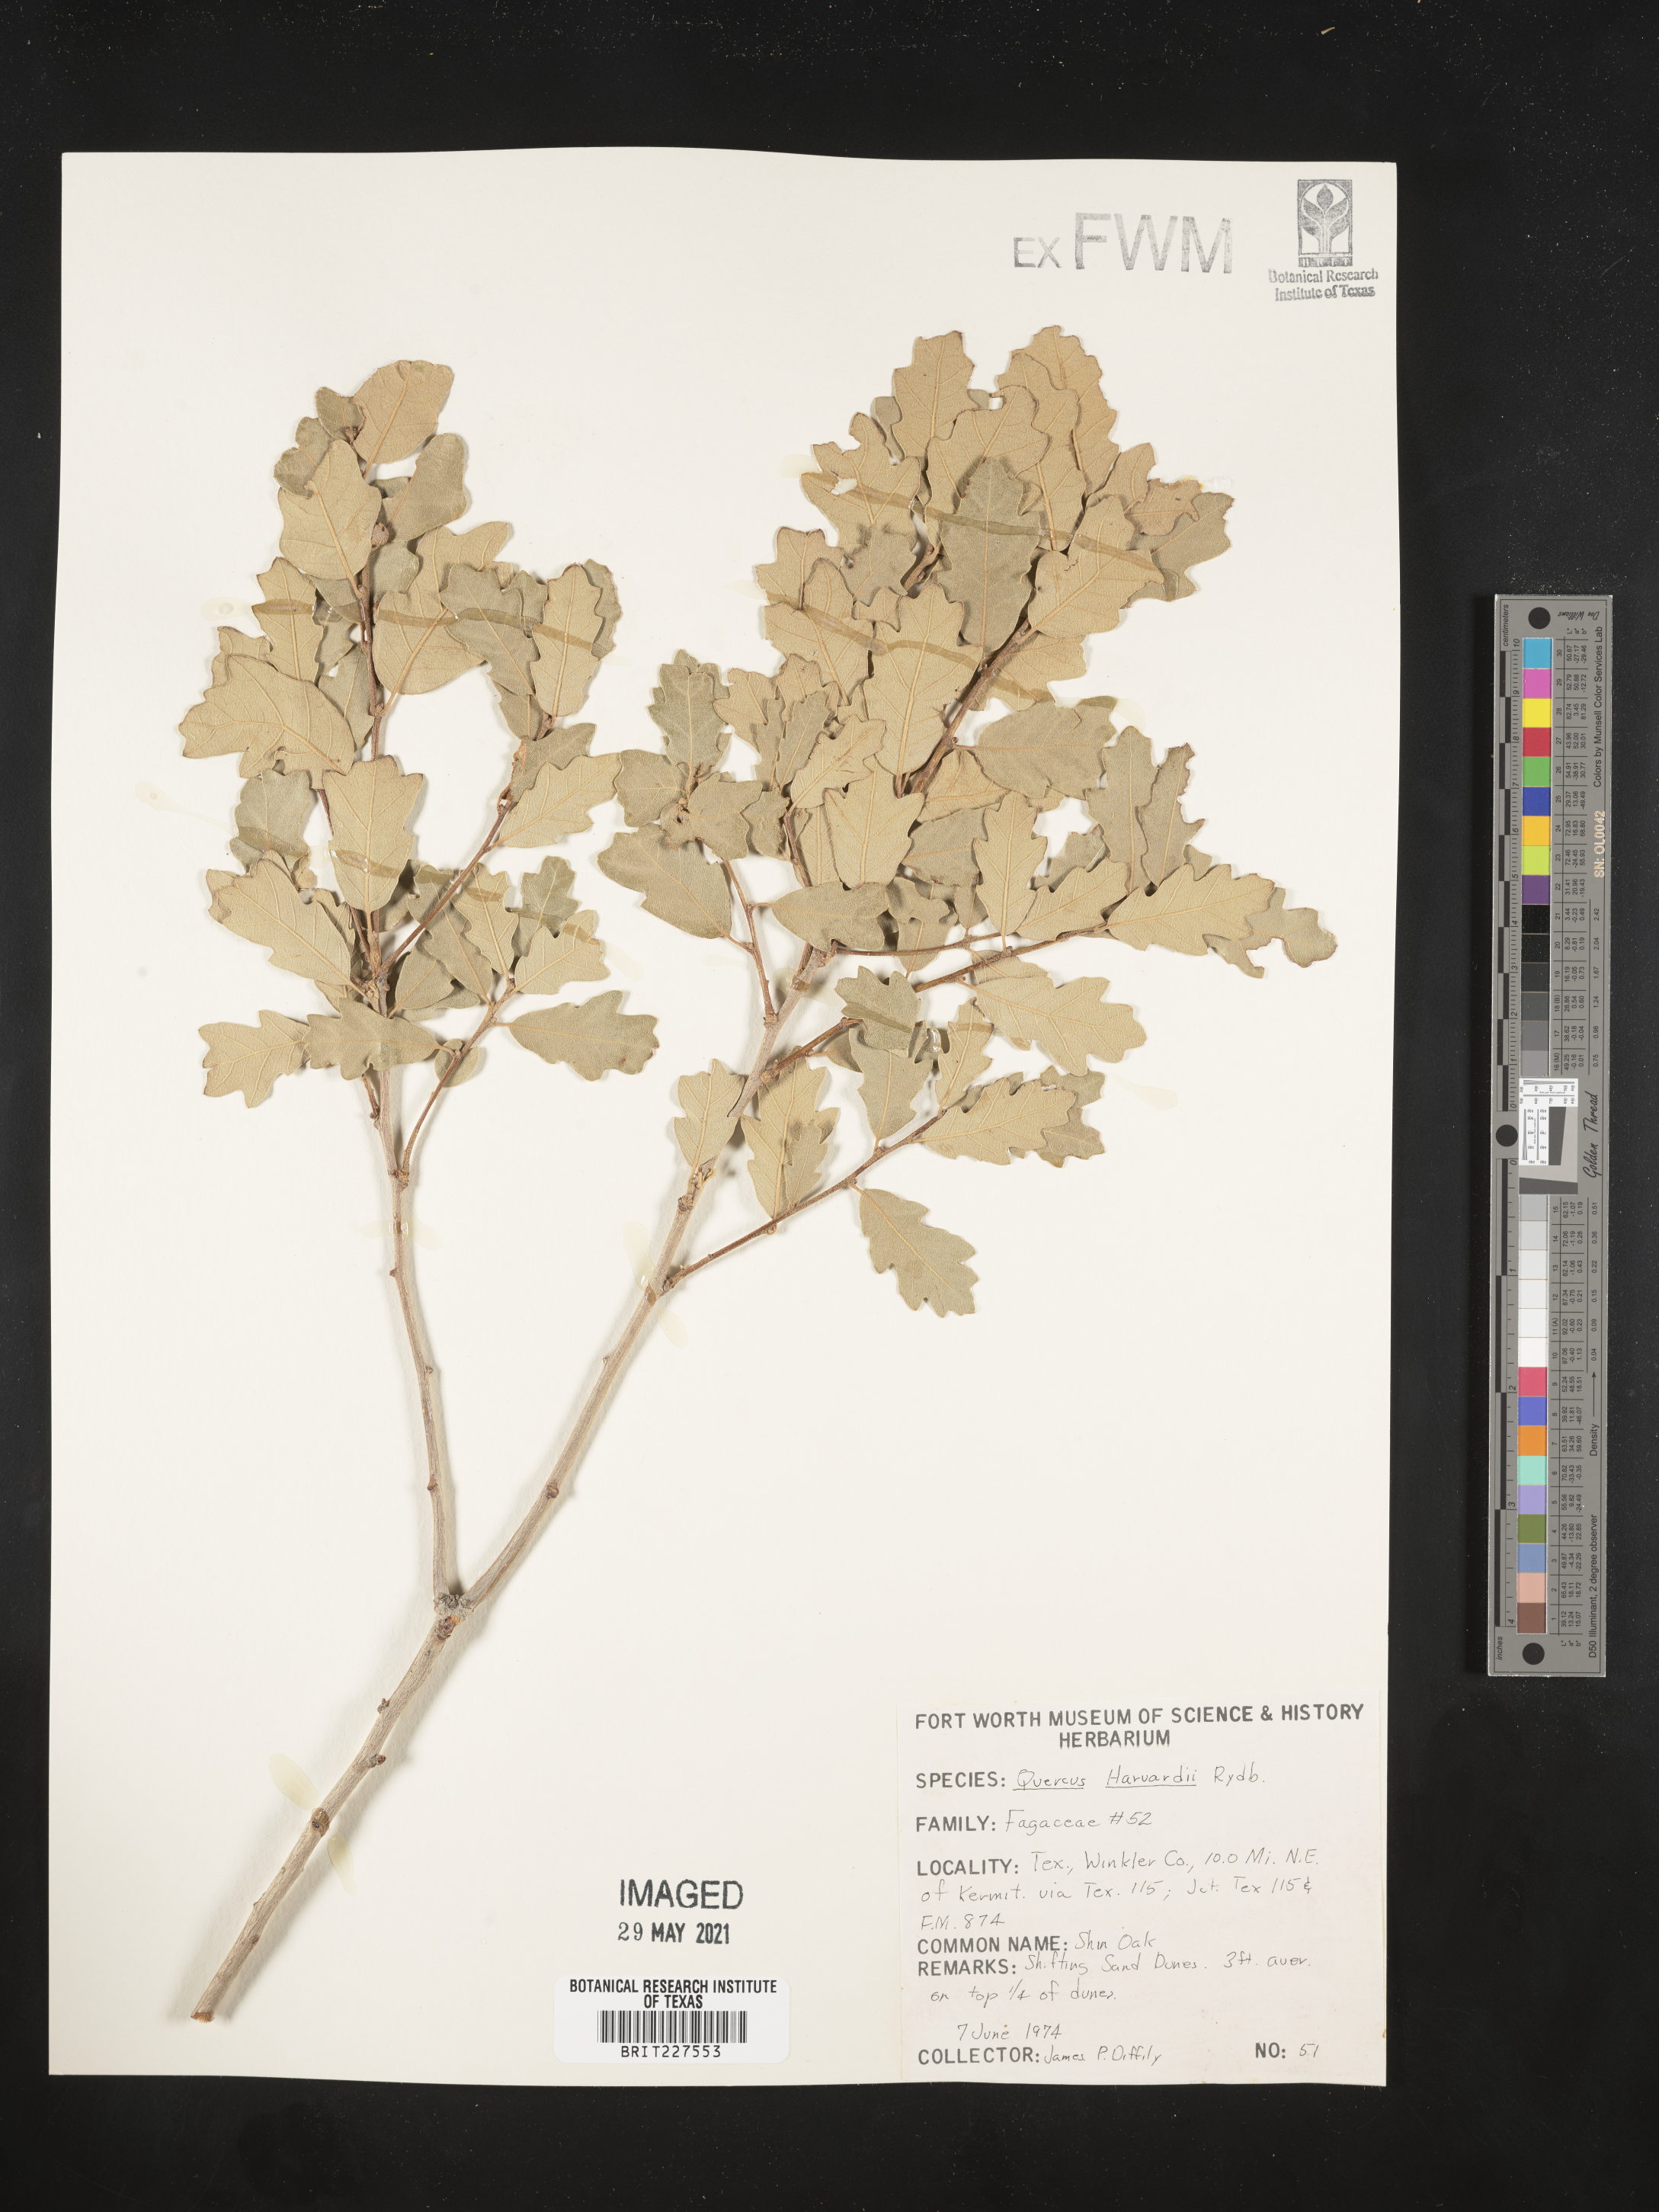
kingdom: Plantae
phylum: Tracheophyta
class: Magnoliopsida
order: Fagales
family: Fagaceae
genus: Quercus
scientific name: Quercus havardii
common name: Shinnery oak
